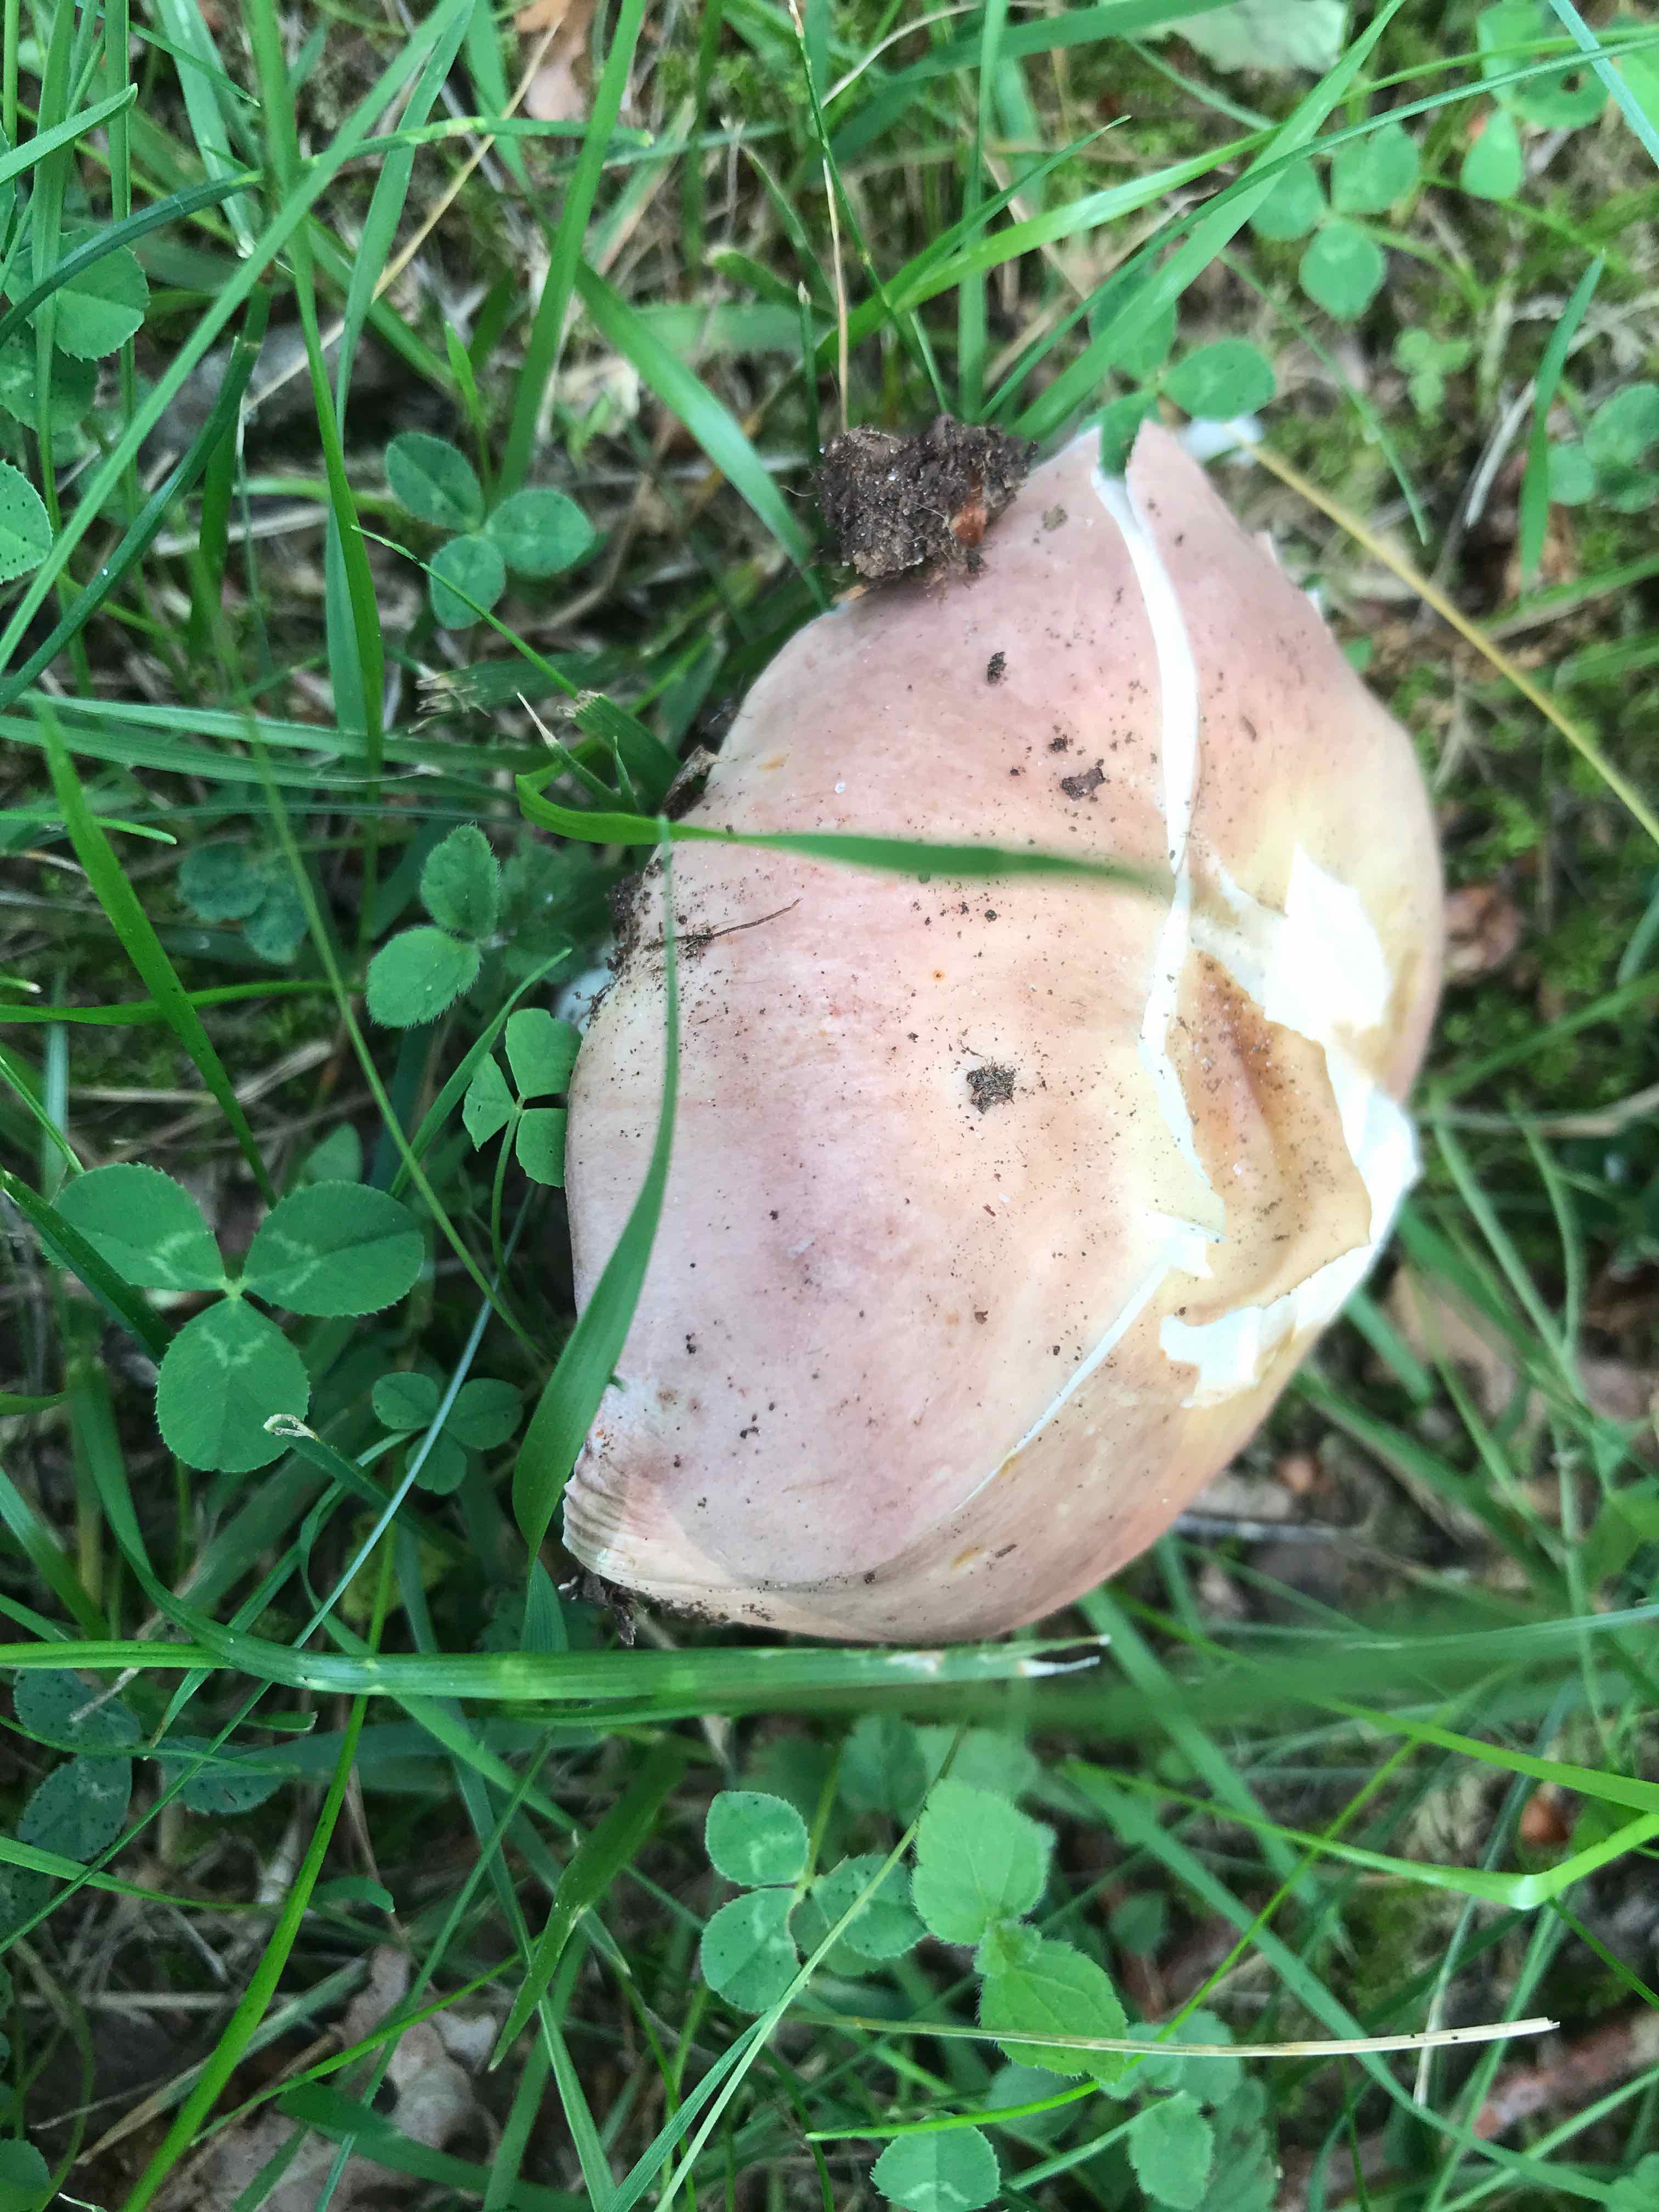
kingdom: Fungi
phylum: Basidiomycota
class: Agaricomycetes
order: Russulales
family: Russulaceae
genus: Russula
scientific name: Russula
